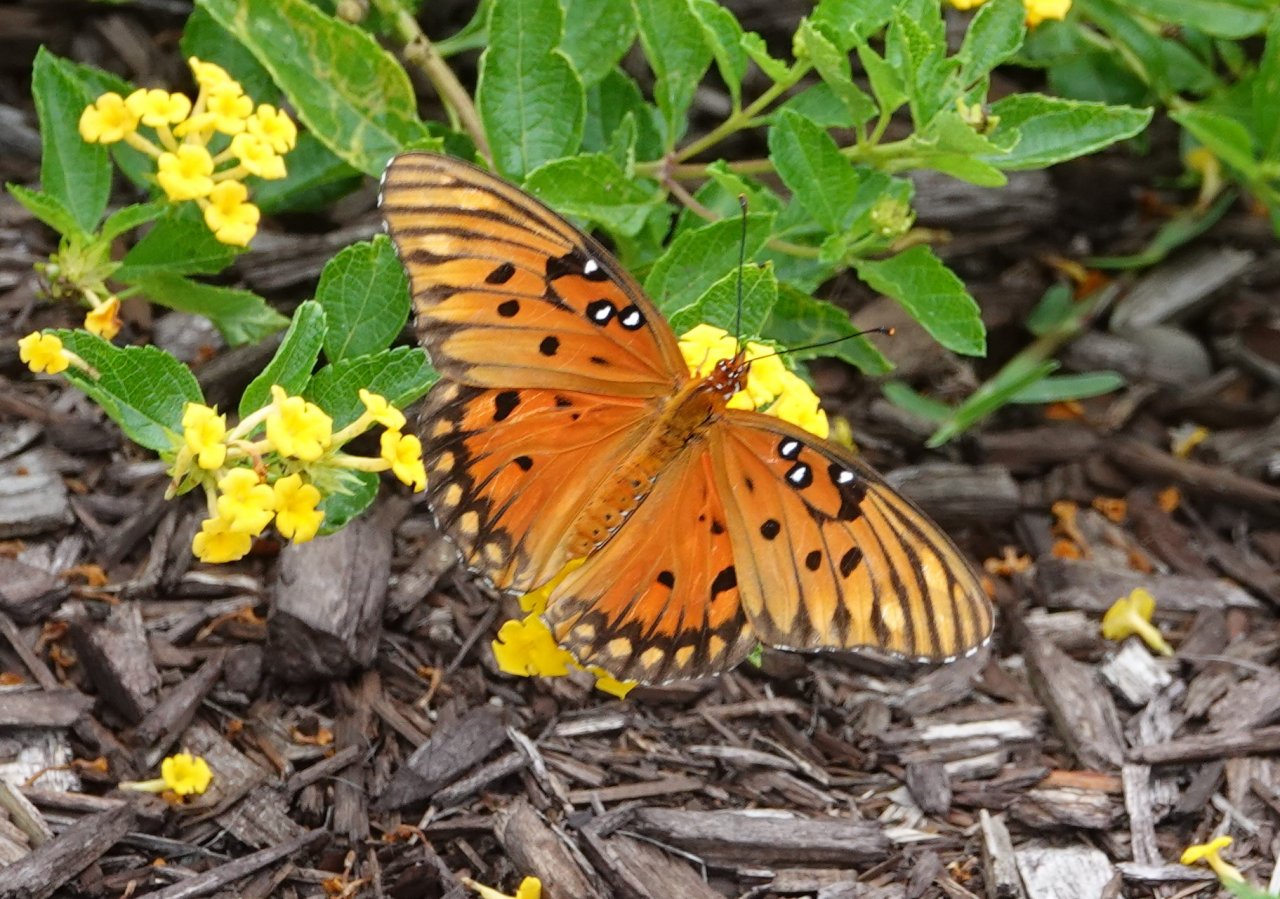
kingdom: Animalia
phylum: Arthropoda
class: Insecta
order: Lepidoptera
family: Nymphalidae
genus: Dione
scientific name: Dione vanillae
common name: Gulf Fritillary
